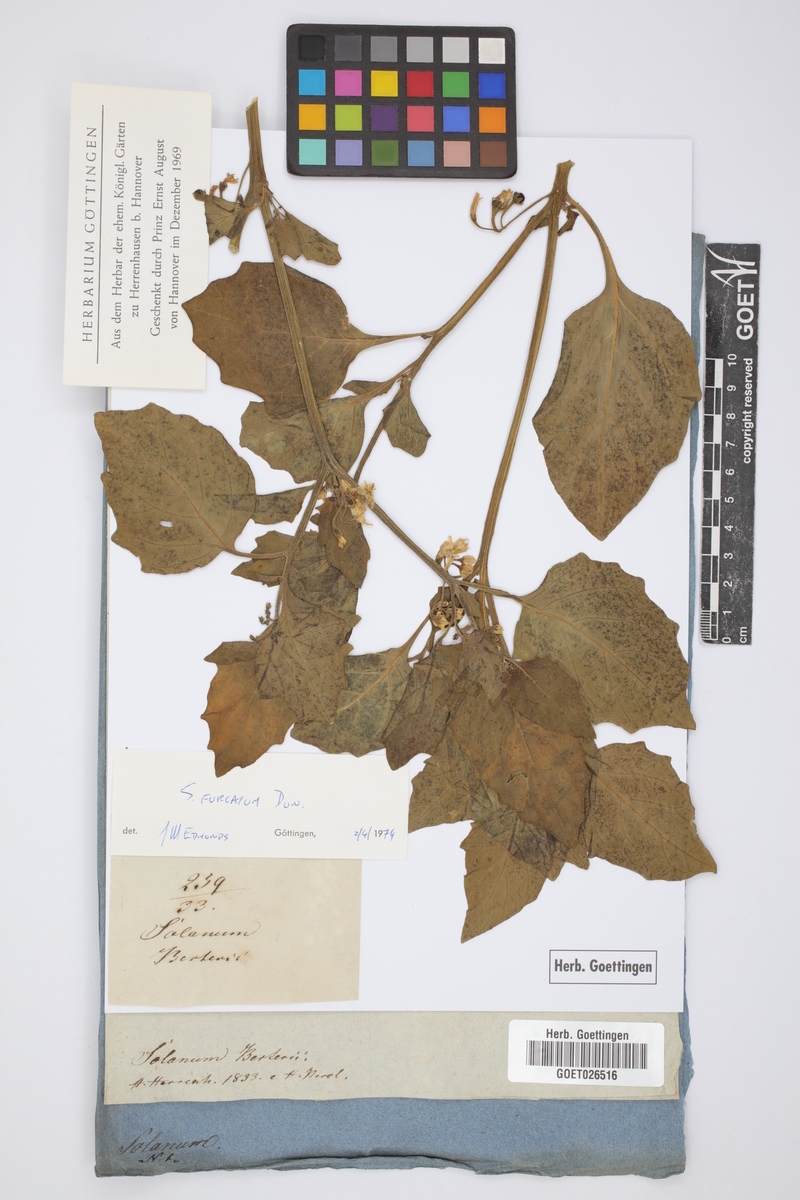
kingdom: Plantae
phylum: Tracheophyta
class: Magnoliopsida
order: Solanales
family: Solanaceae
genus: Solanum
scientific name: Solanum furcatum
